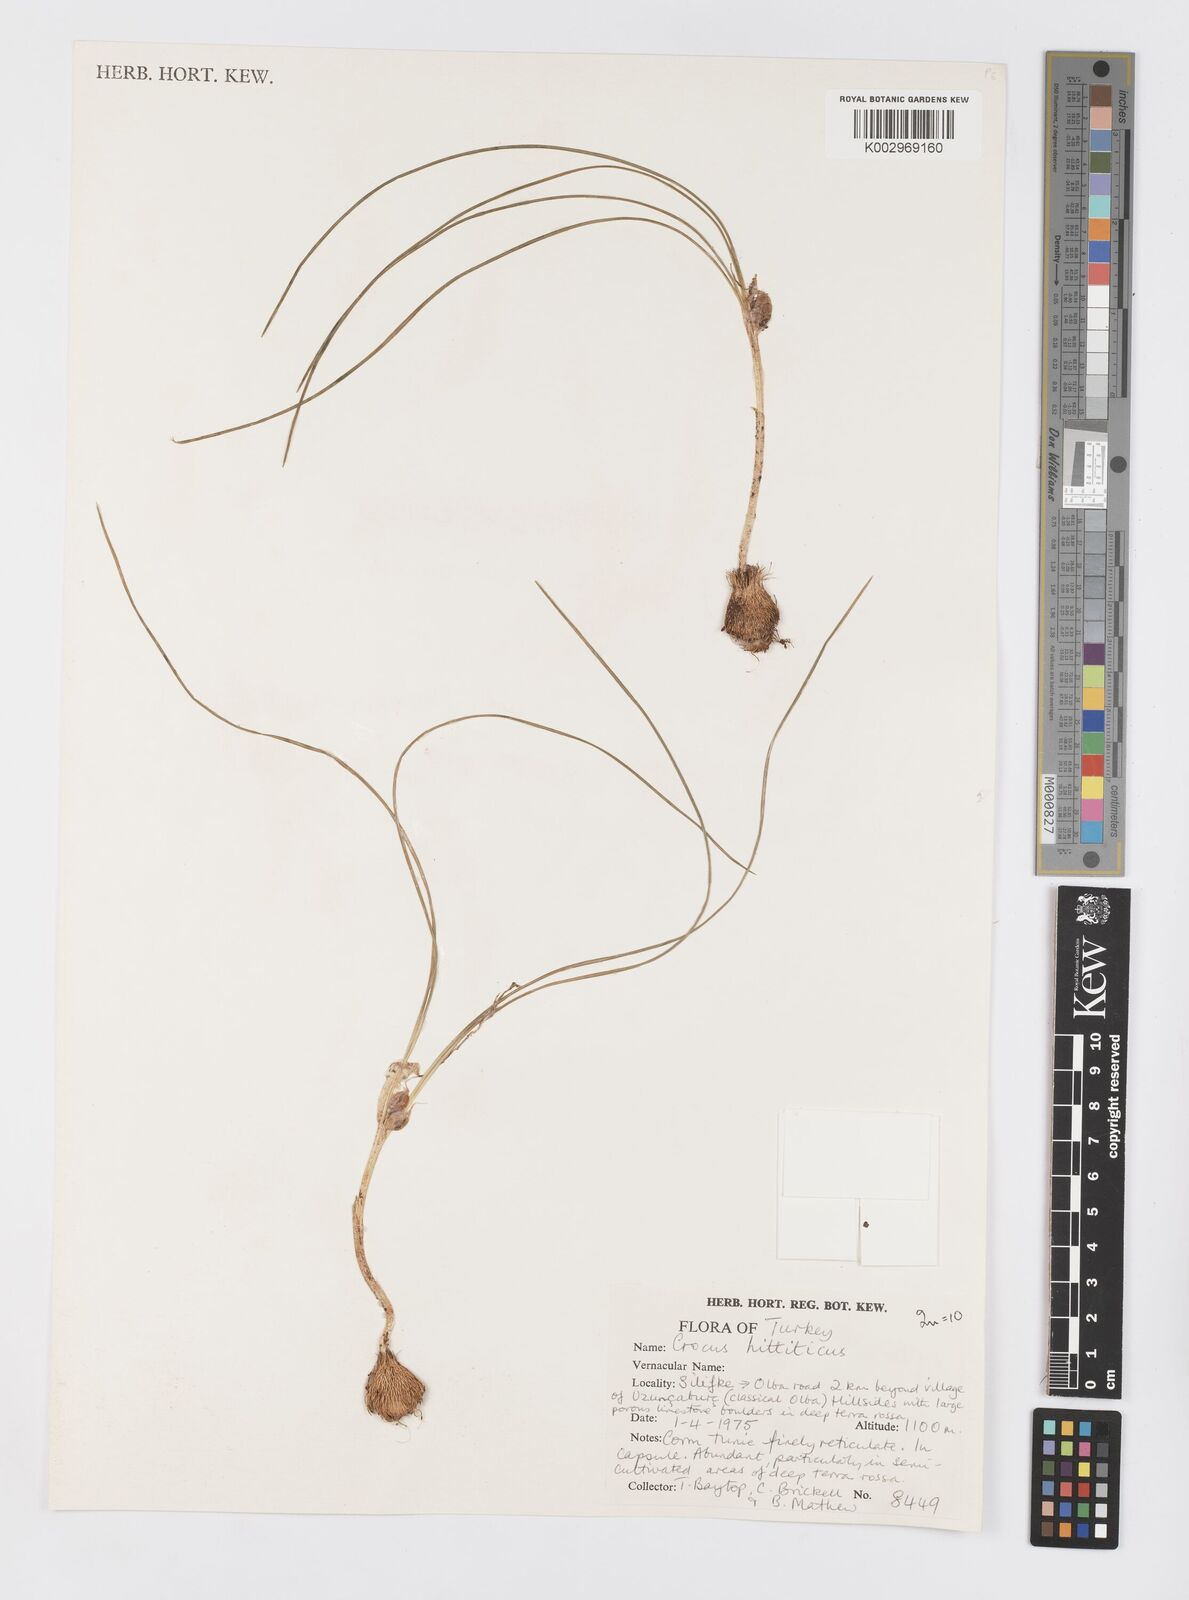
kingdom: Plantae
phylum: Tracheophyta
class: Liliopsida
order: Asparagales
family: Iridaceae
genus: Crocus
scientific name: Crocus hittiticus
